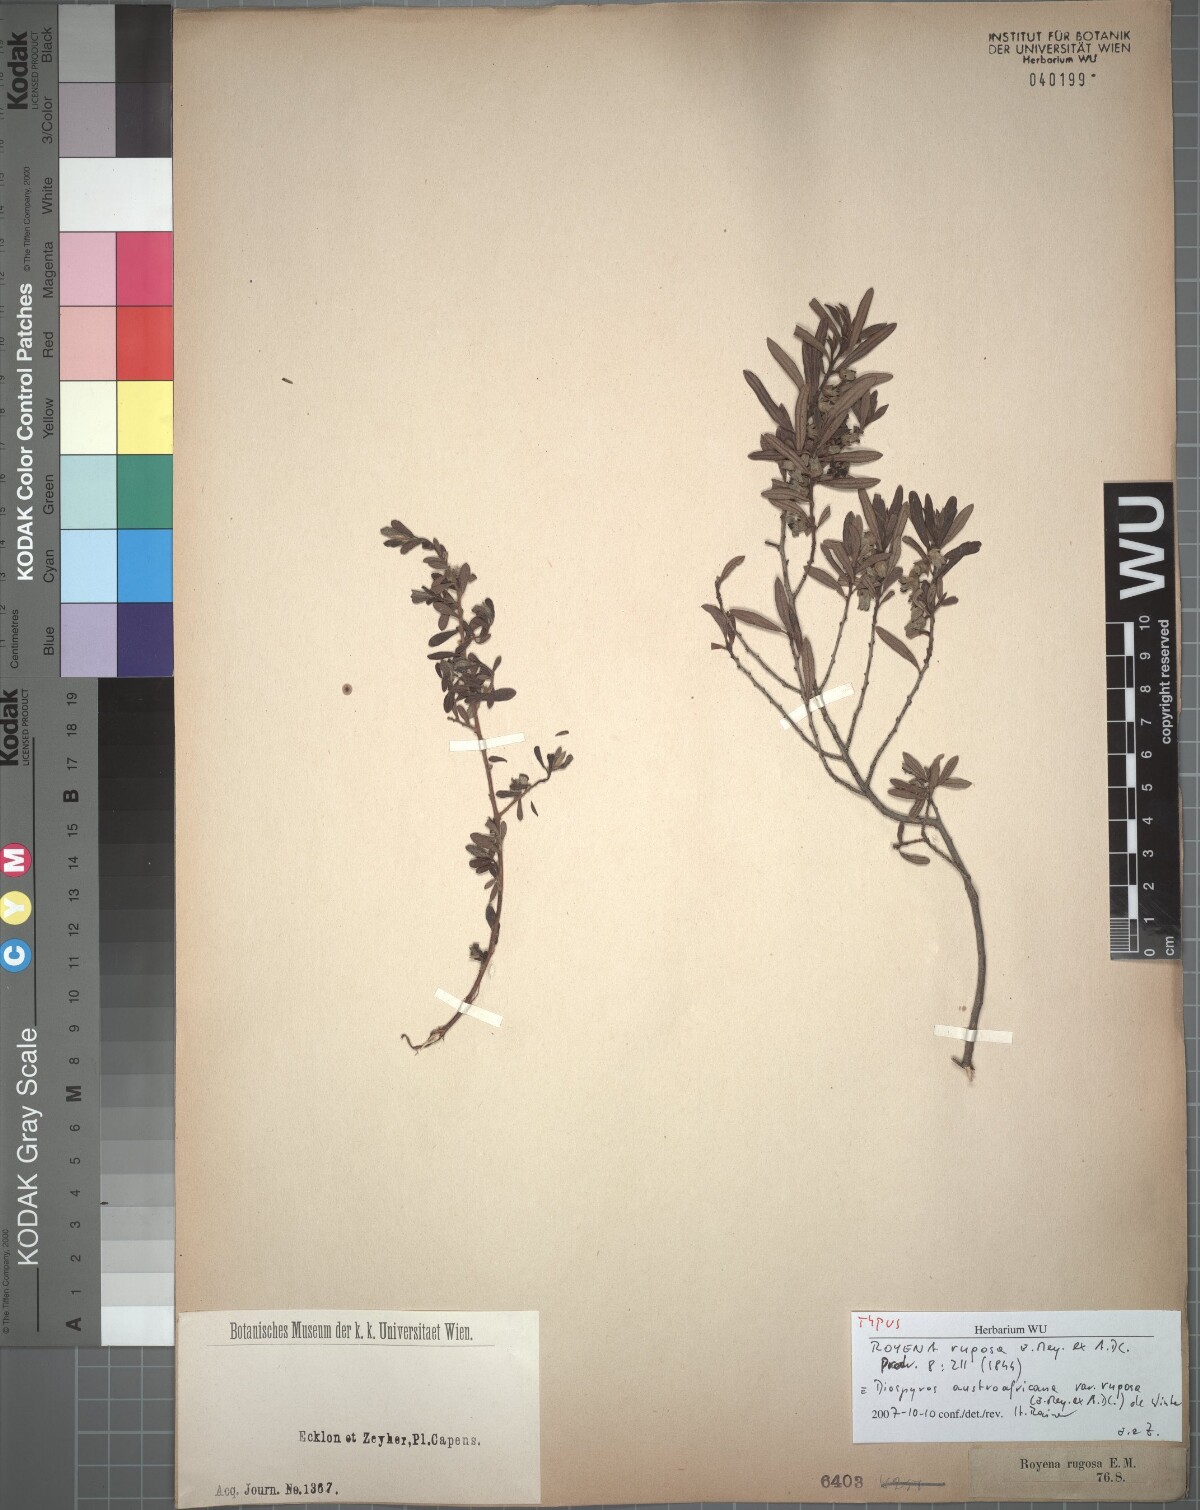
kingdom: Plantae
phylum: Tracheophyta
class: Magnoliopsida
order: Ericales
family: Ebenaceae
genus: Diospyros
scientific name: Diospyros pubescens
